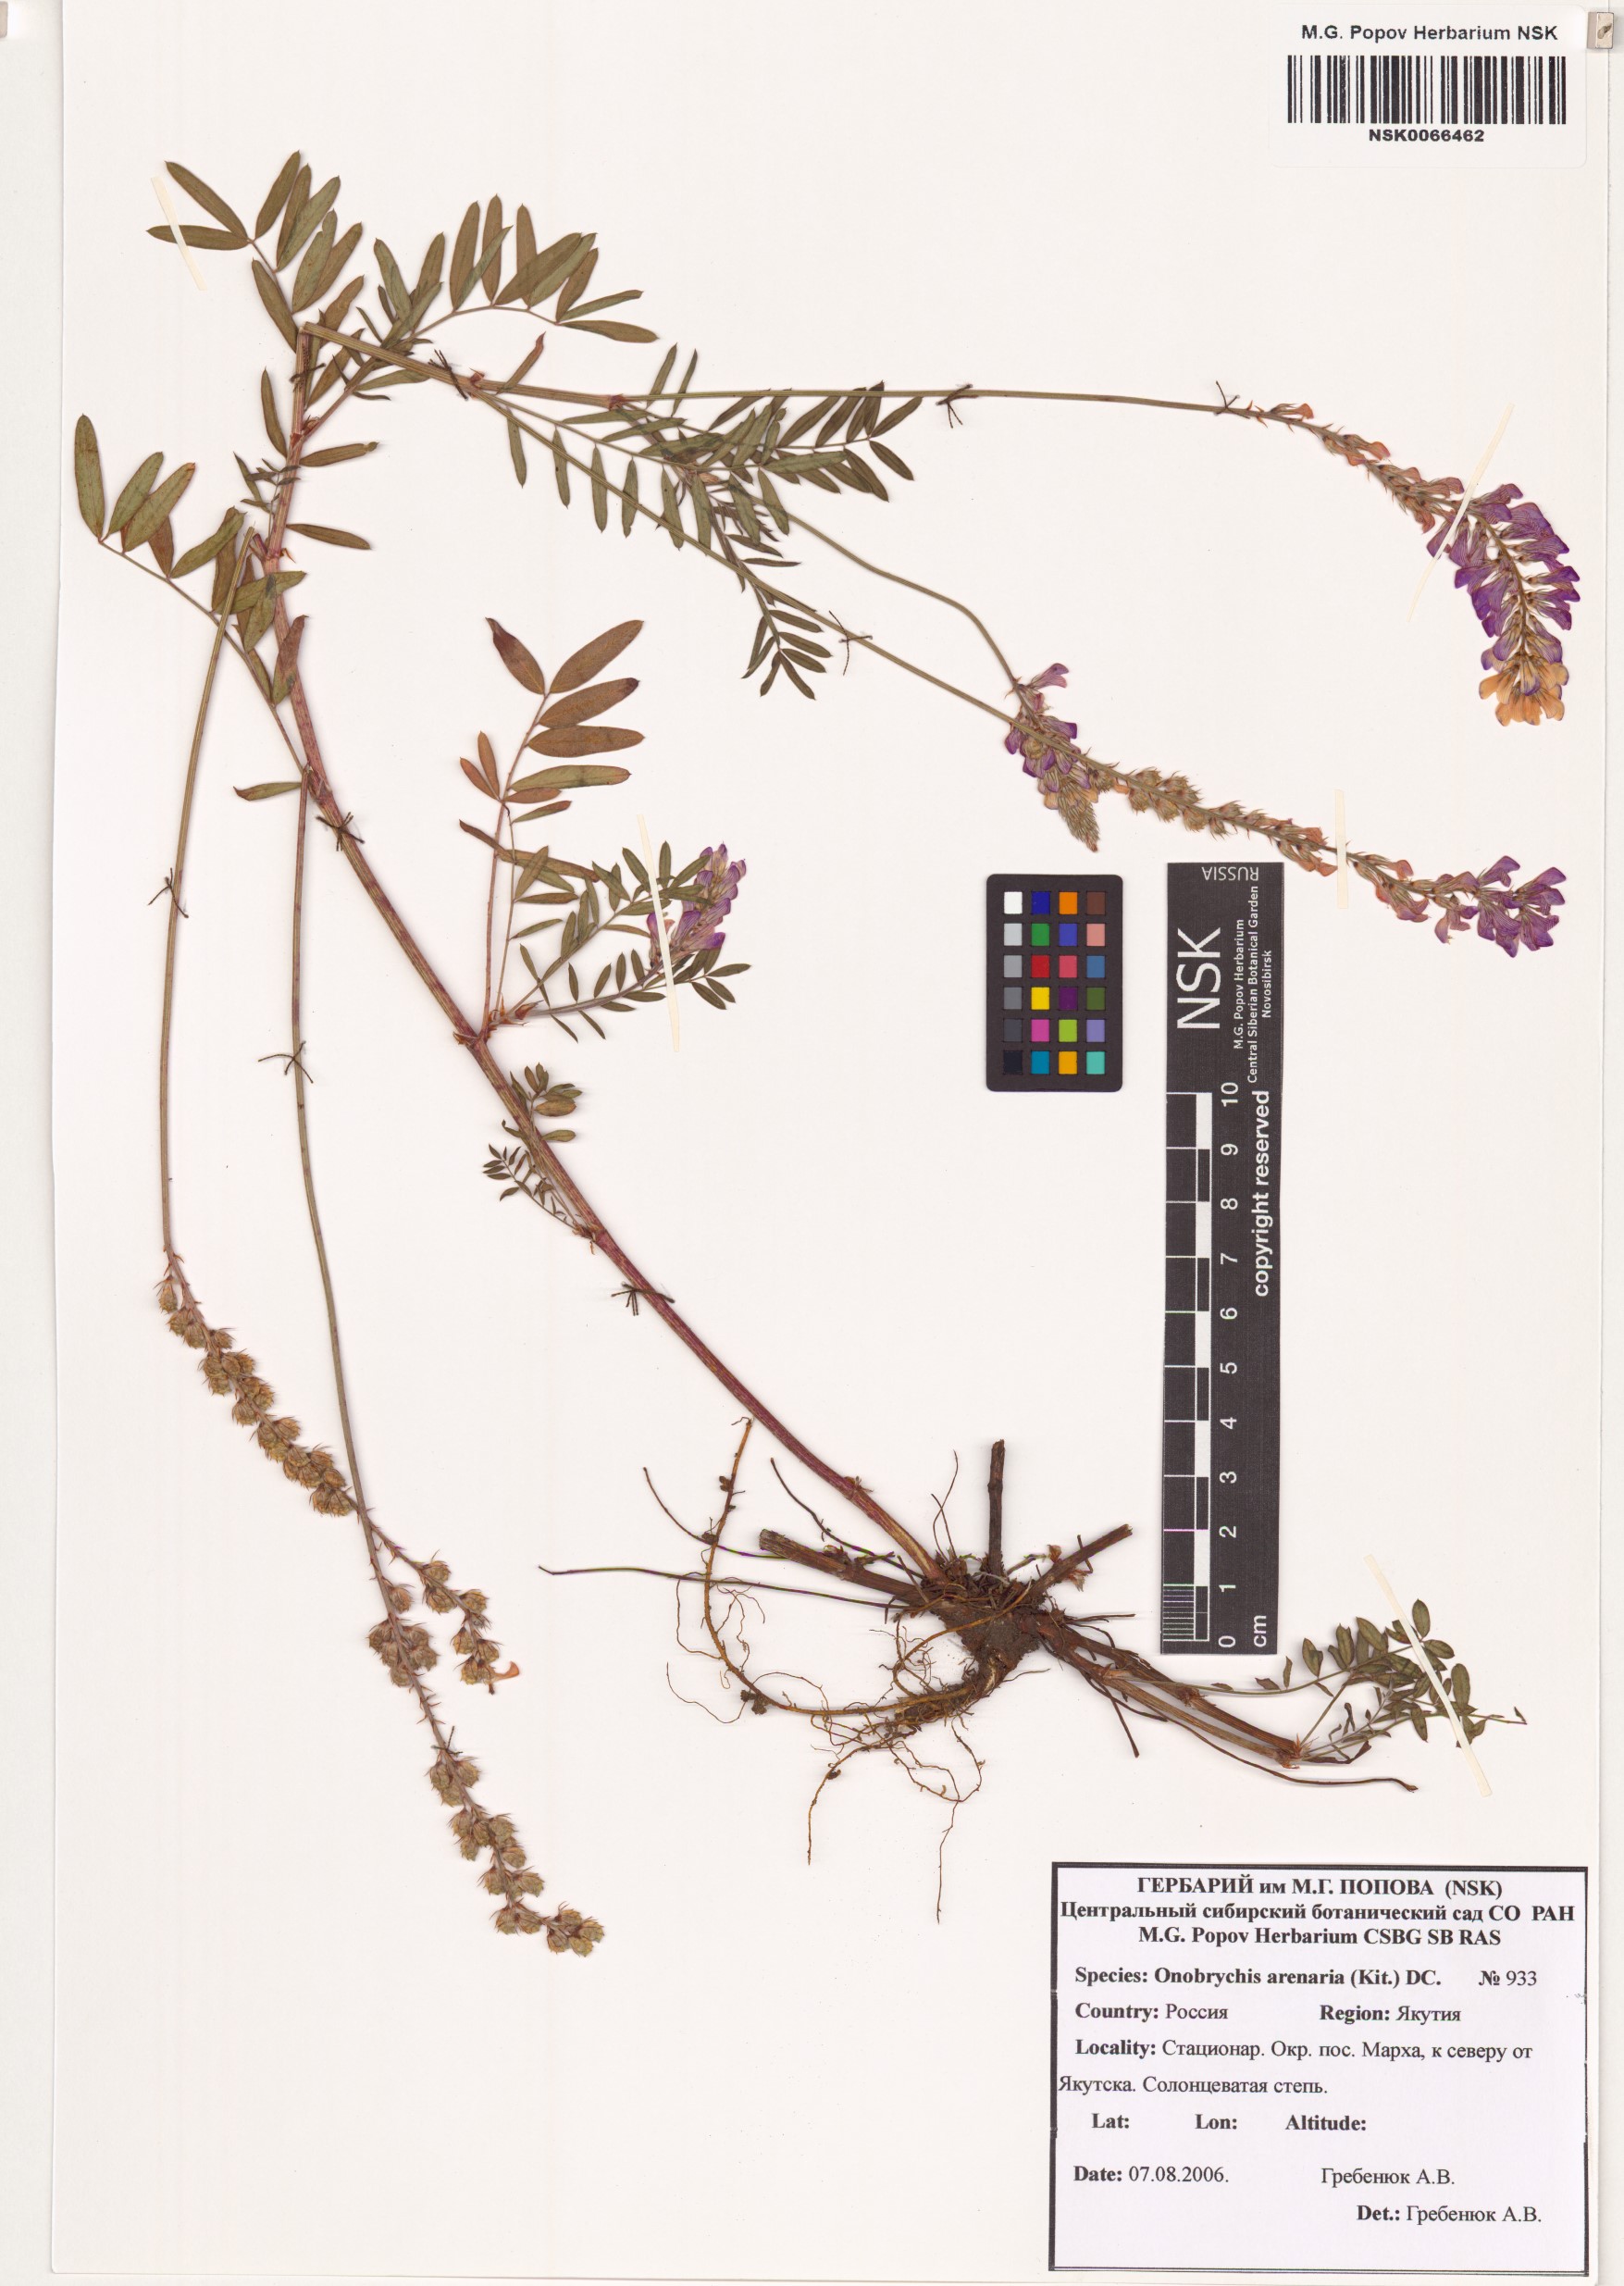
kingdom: Plantae
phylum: Tracheophyta
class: Magnoliopsida
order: Fabales
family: Fabaceae
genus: Onobrychis
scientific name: Onobrychis arenaria
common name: Sand esparcet
